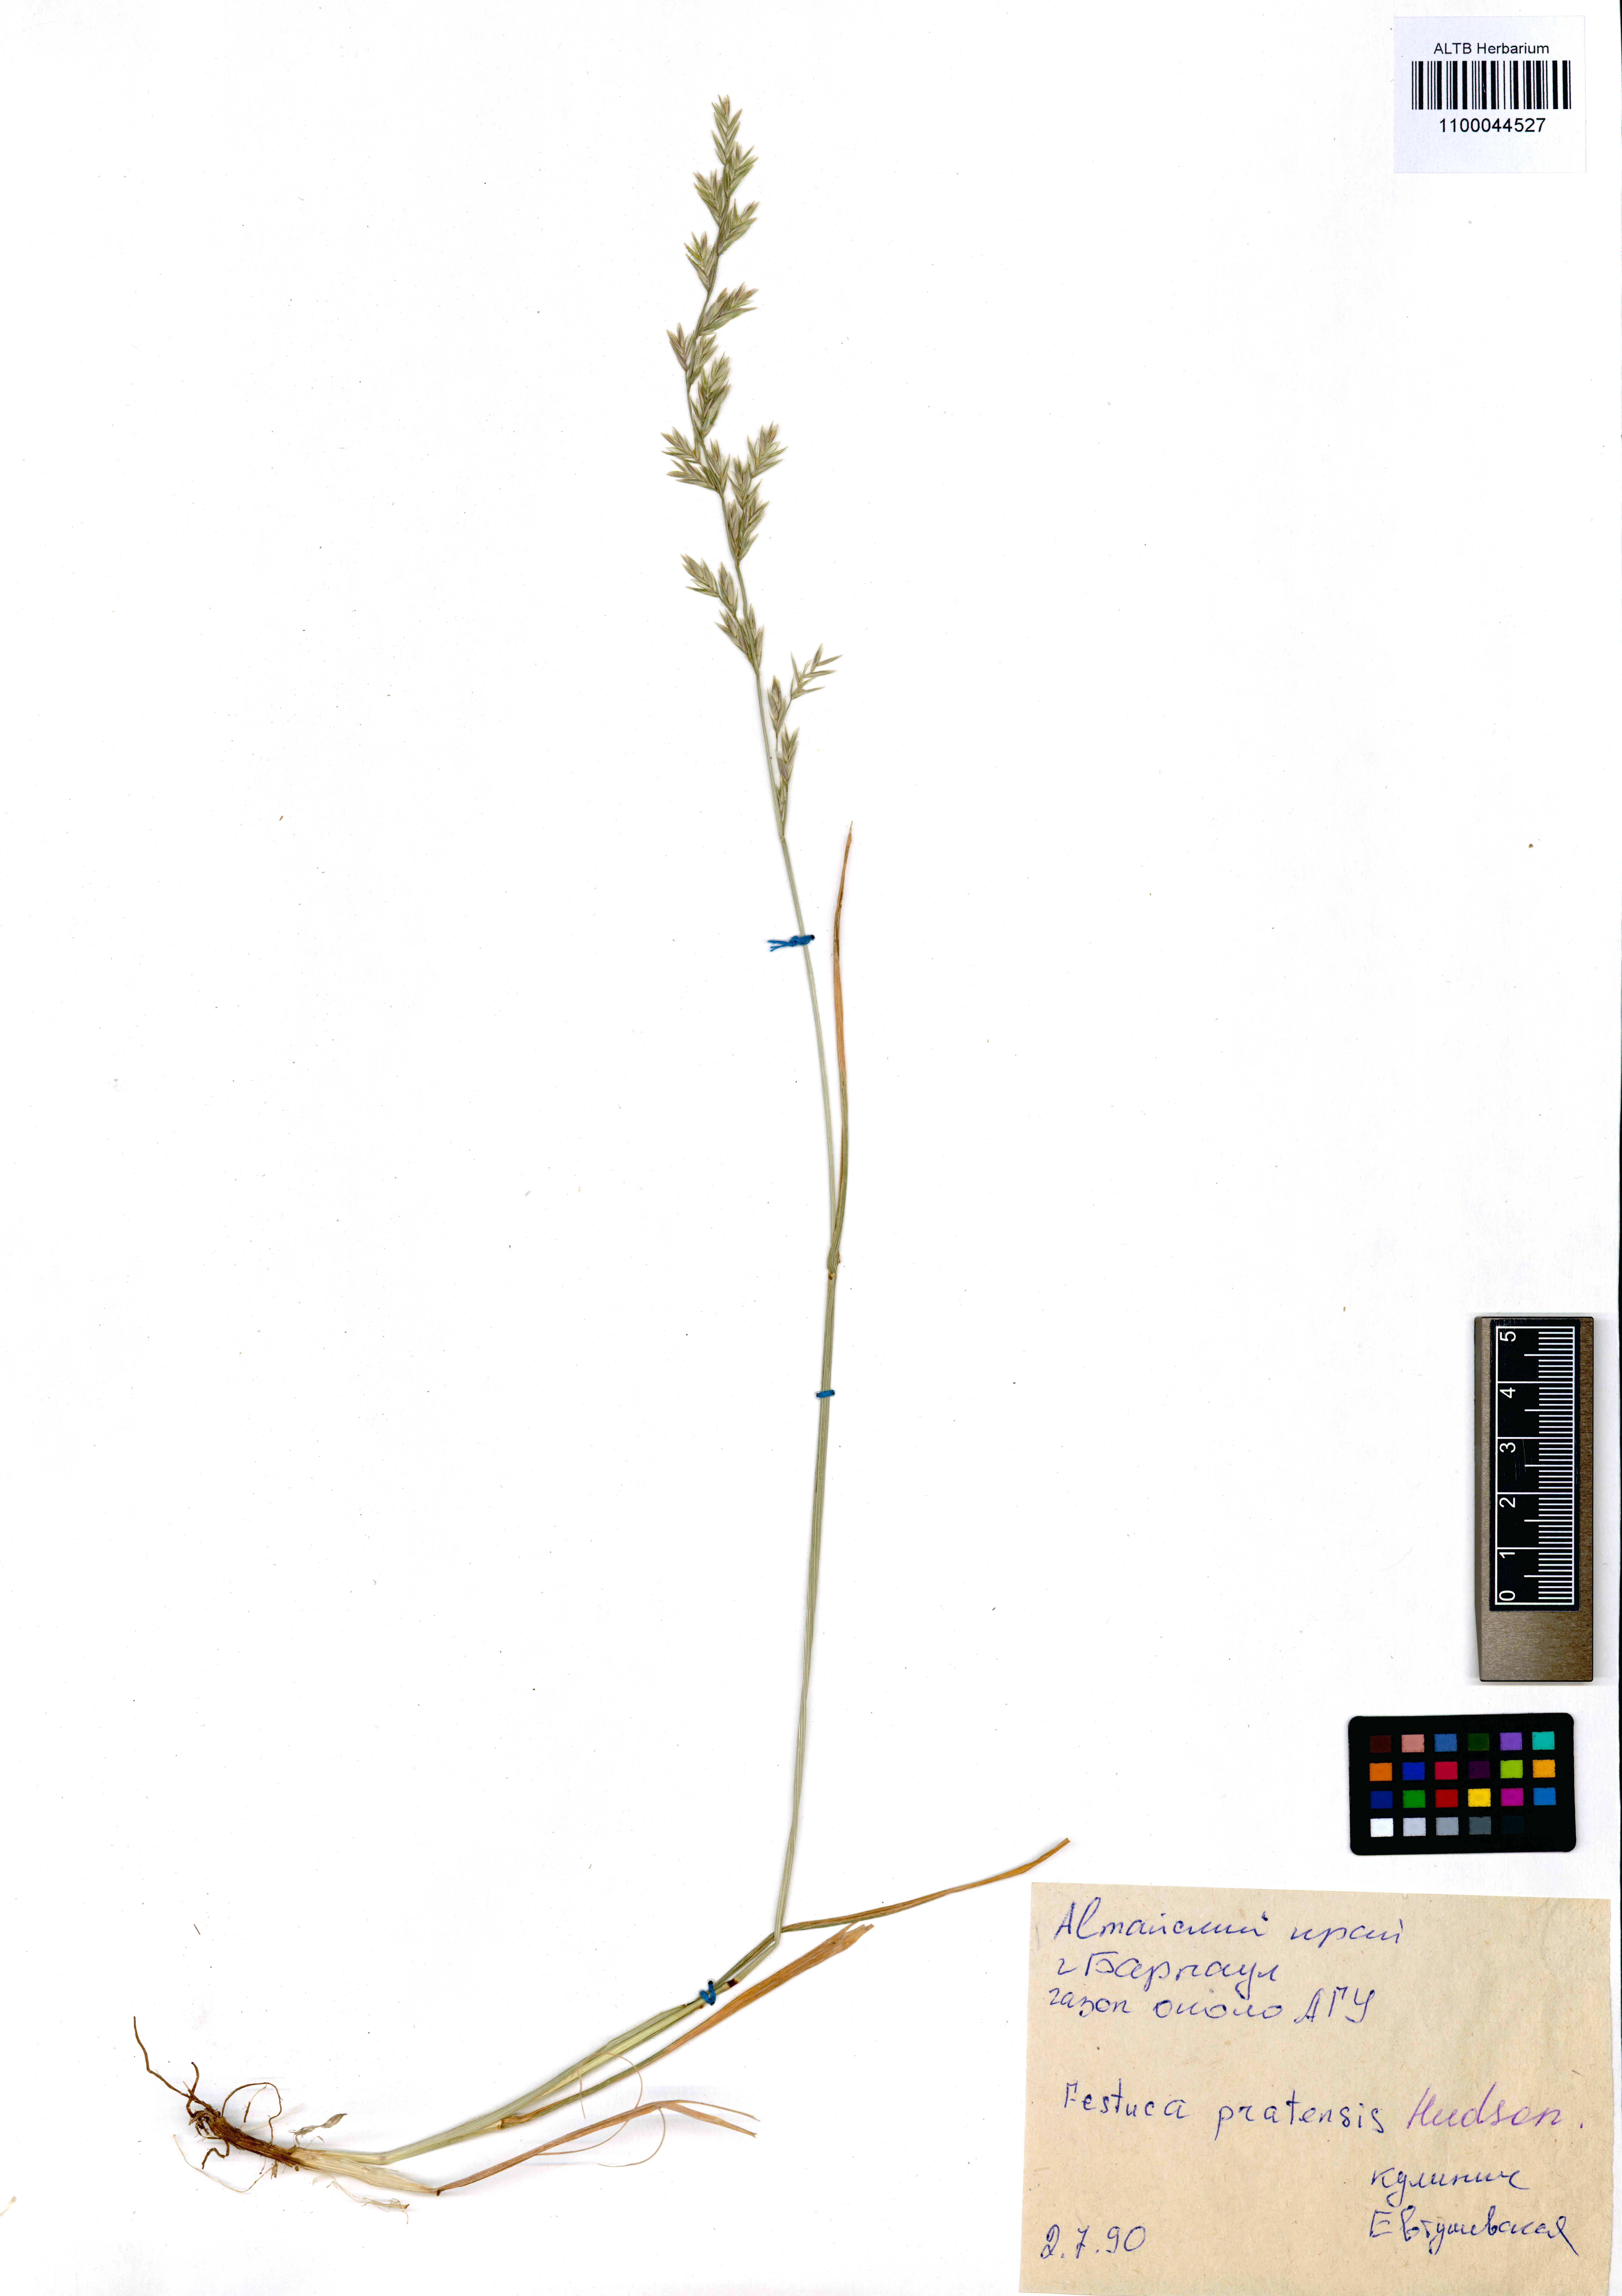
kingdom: Plantae
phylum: Tracheophyta
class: Liliopsida
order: Poales
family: Poaceae
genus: Lolium
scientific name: Lolium pratense
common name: Dover grass
